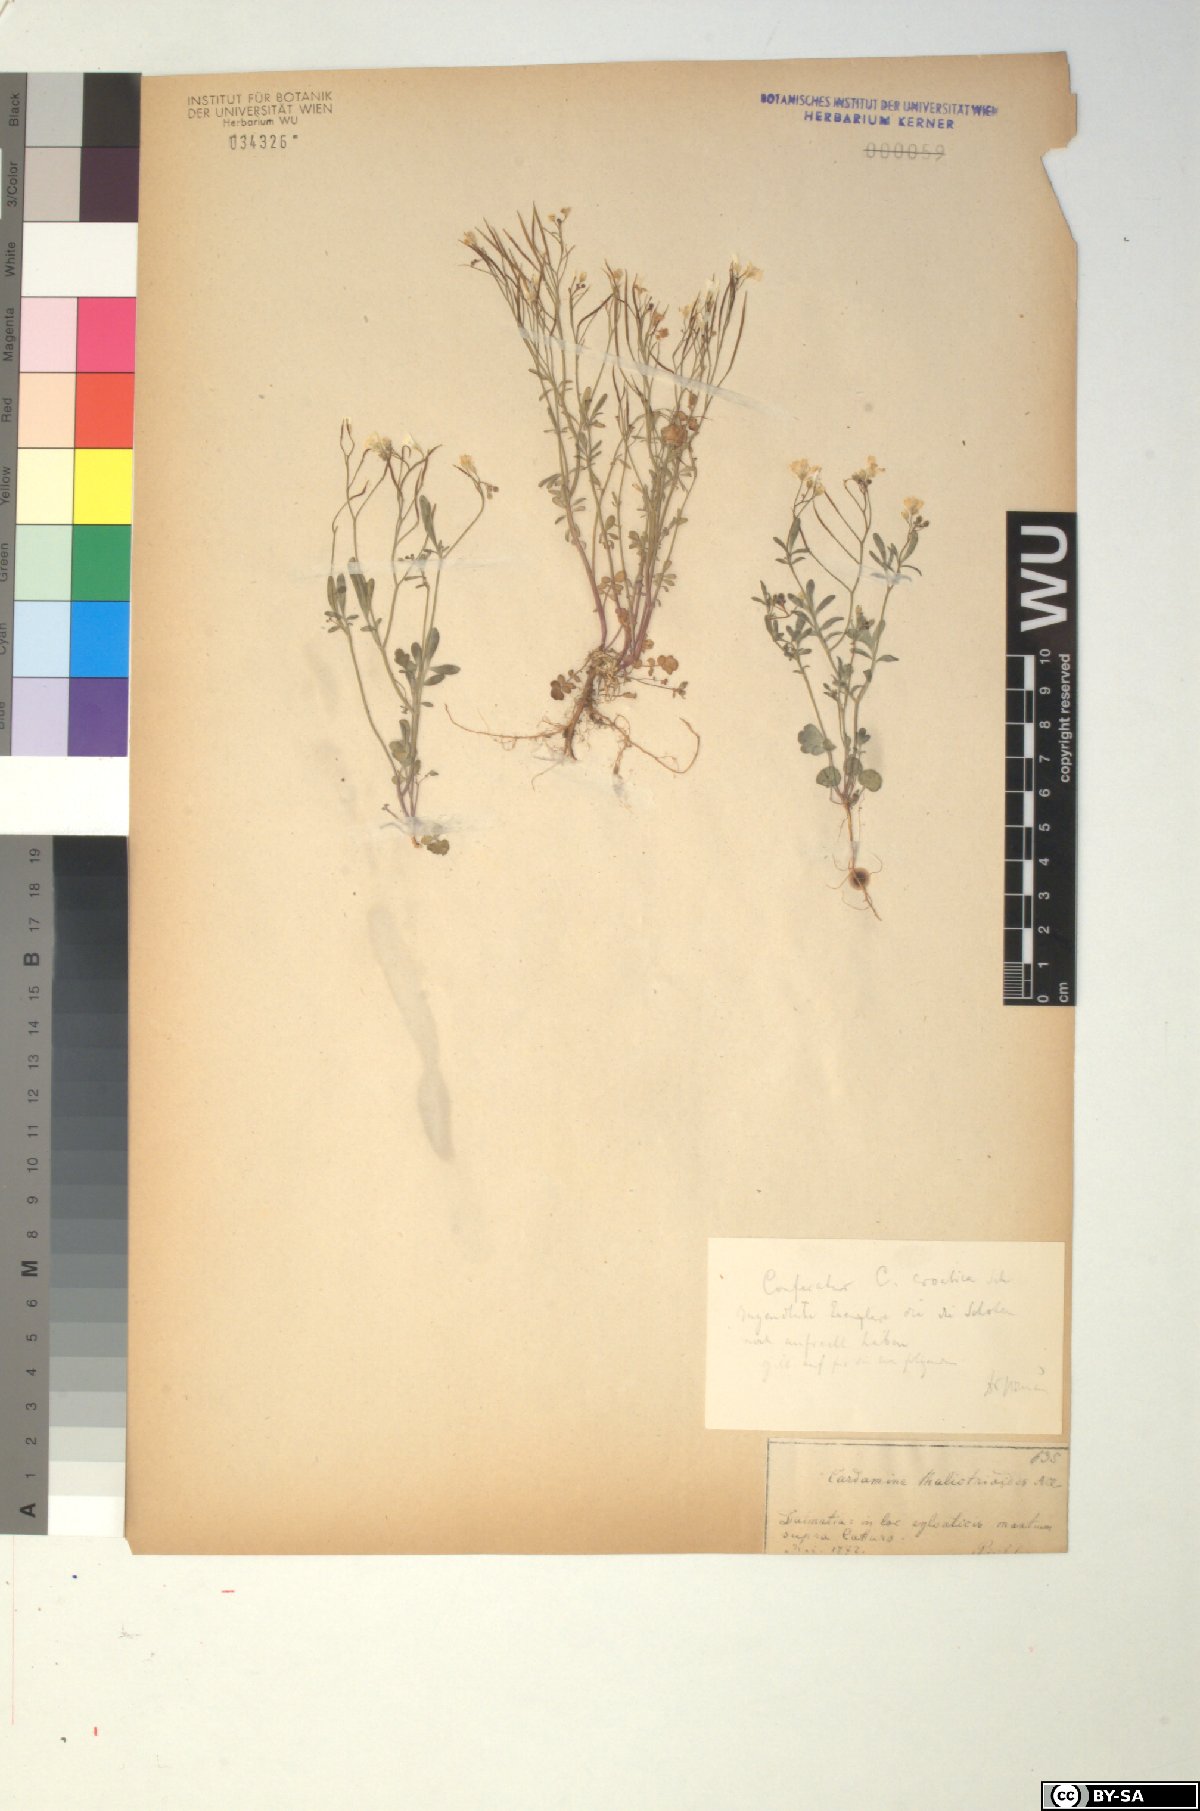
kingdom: Plantae
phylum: Tracheophyta
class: Magnoliopsida
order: Brassicales
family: Brassicaceae
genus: Cardamine
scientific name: Cardamine glauca
